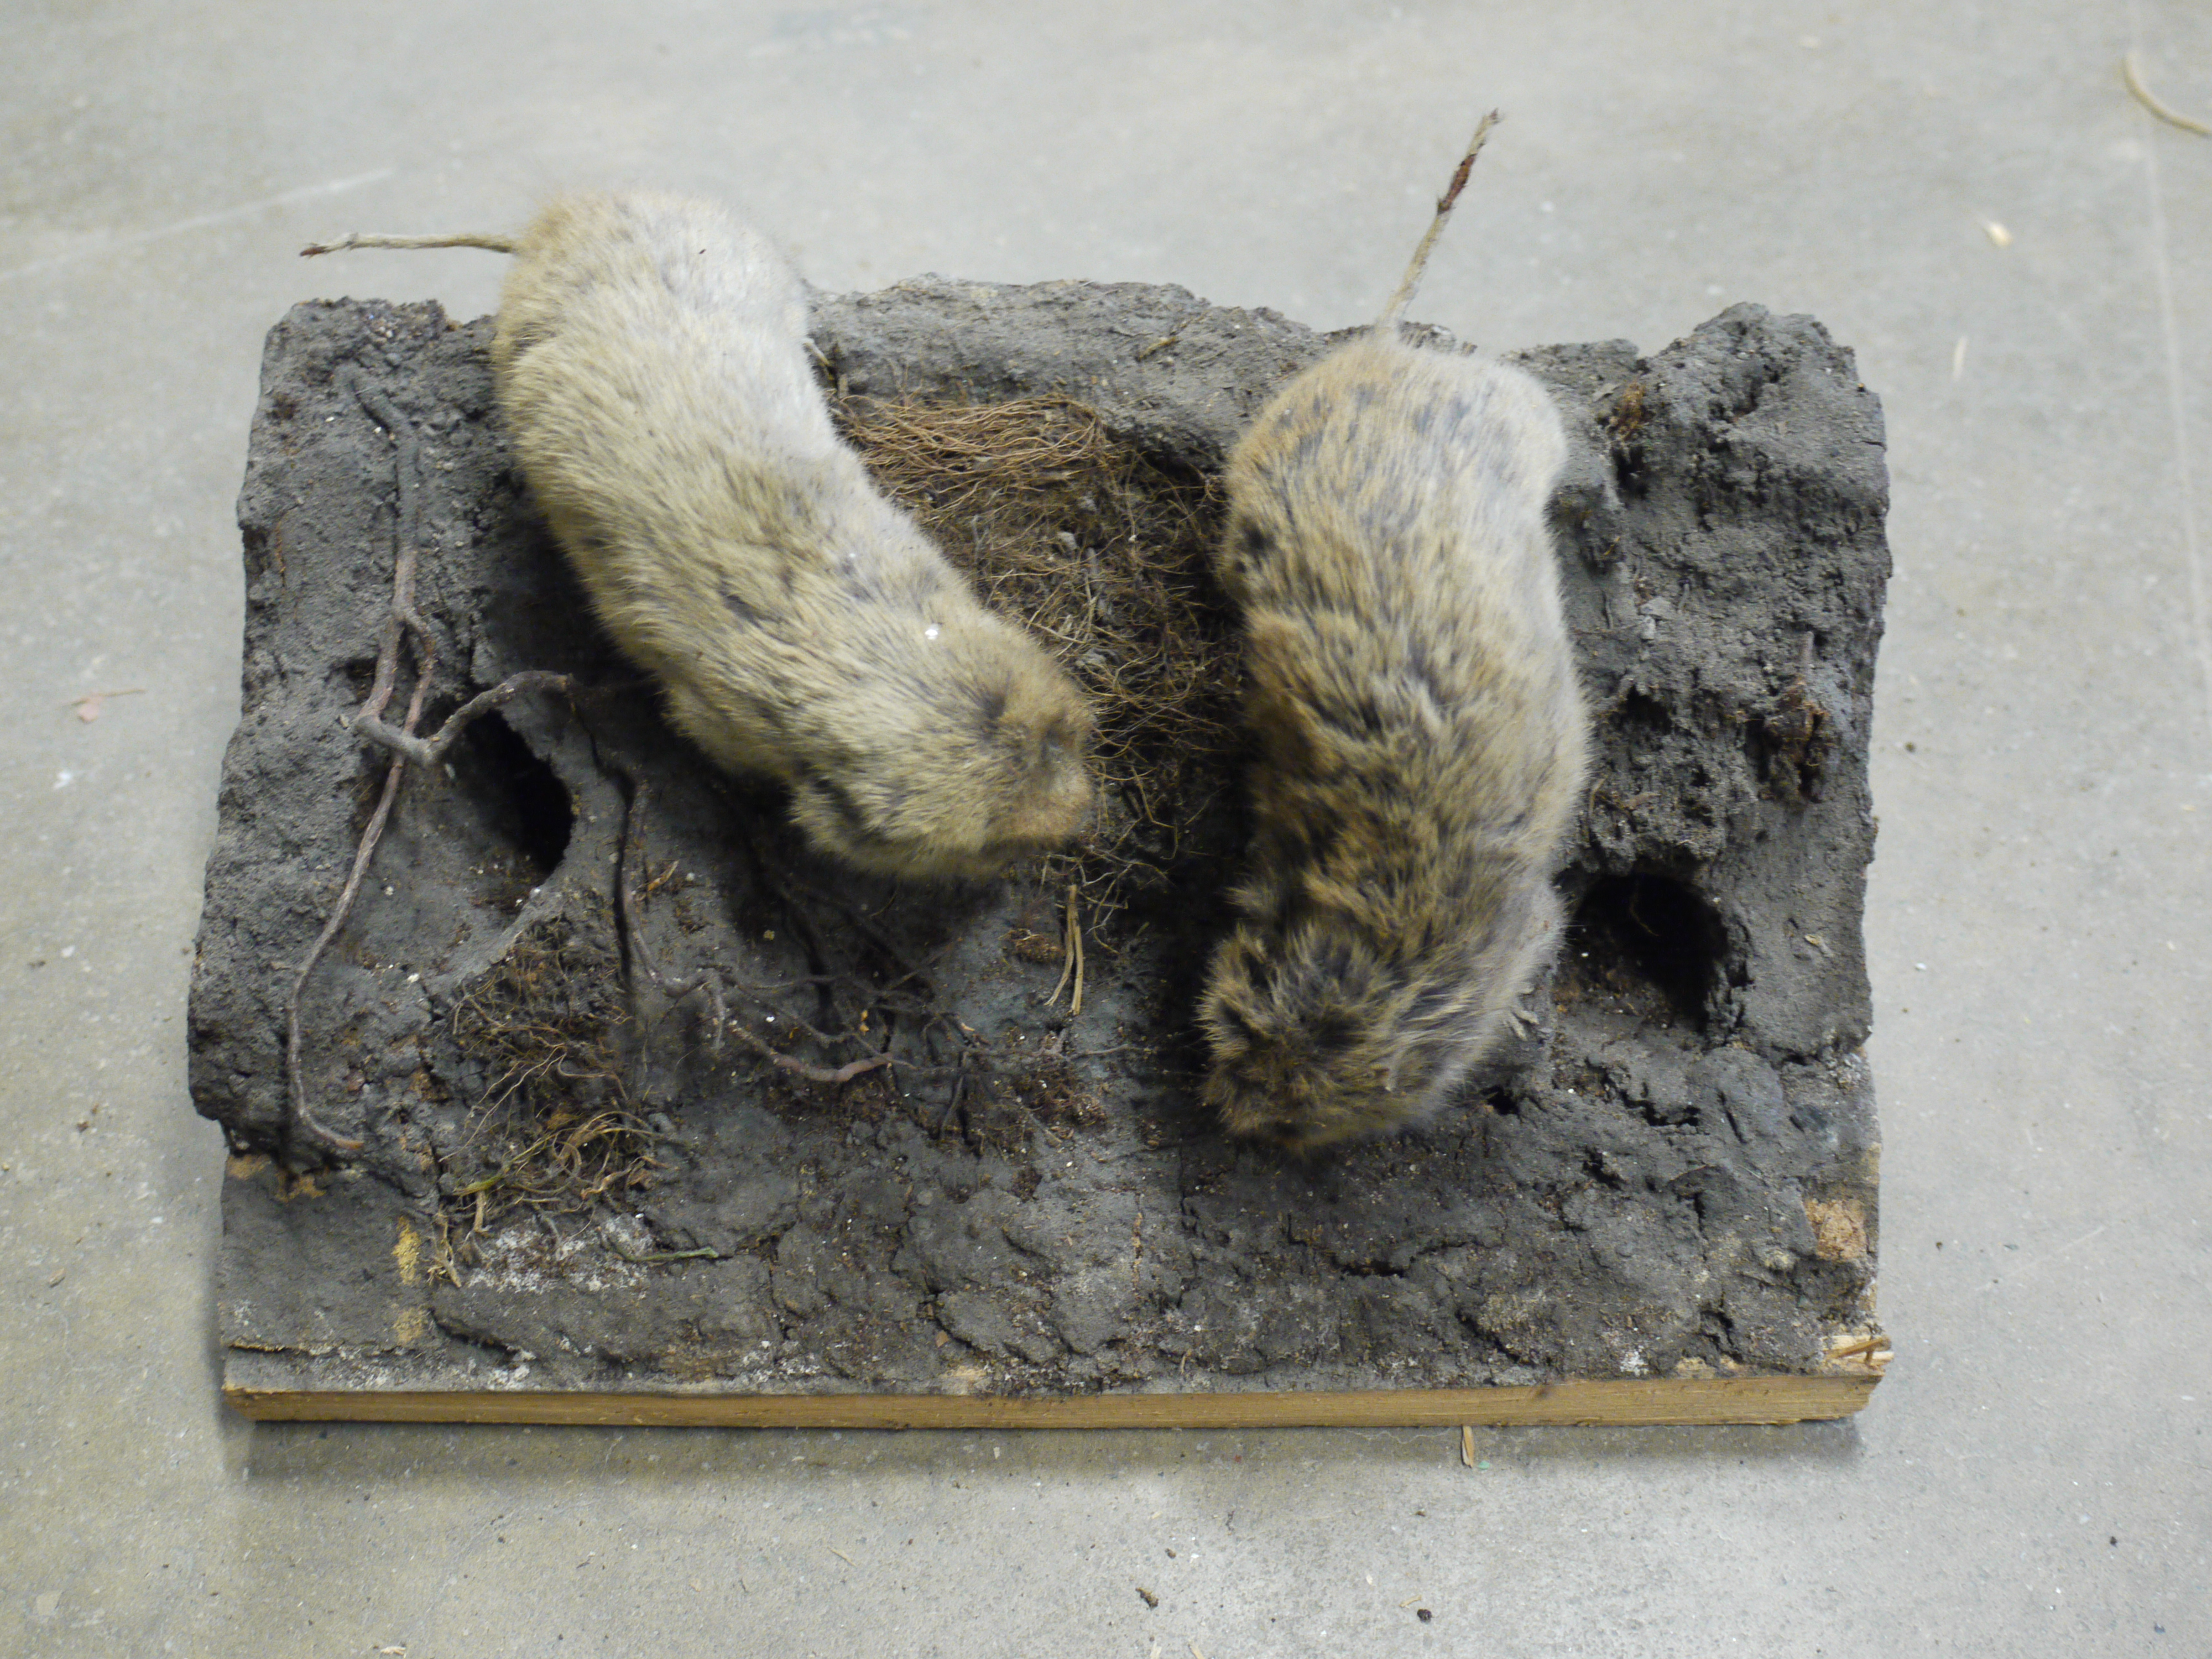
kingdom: Animalia
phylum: Chordata
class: Mammalia
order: Rodentia
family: Cricetidae
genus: Arvicola
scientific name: Arvicola amphibius
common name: European water vole
